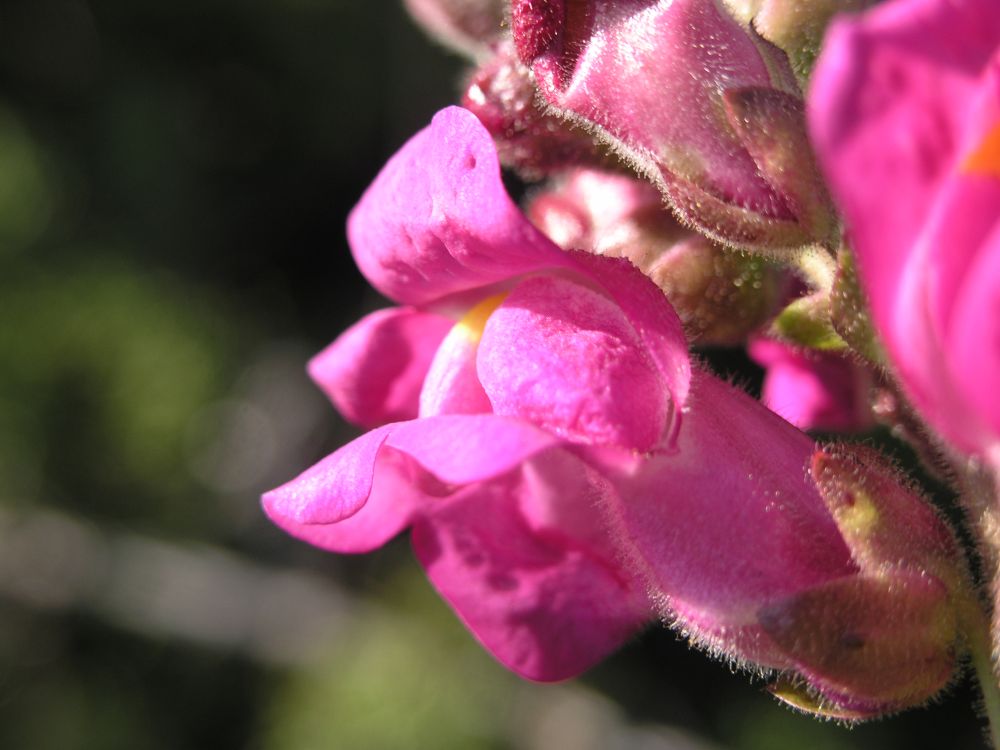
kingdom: Plantae
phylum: Tracheophyta
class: Magnoliopsida
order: Lamiales
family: Plantaginaceae
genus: Antirrhinum
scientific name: Antirrhinum cirrhigerum
